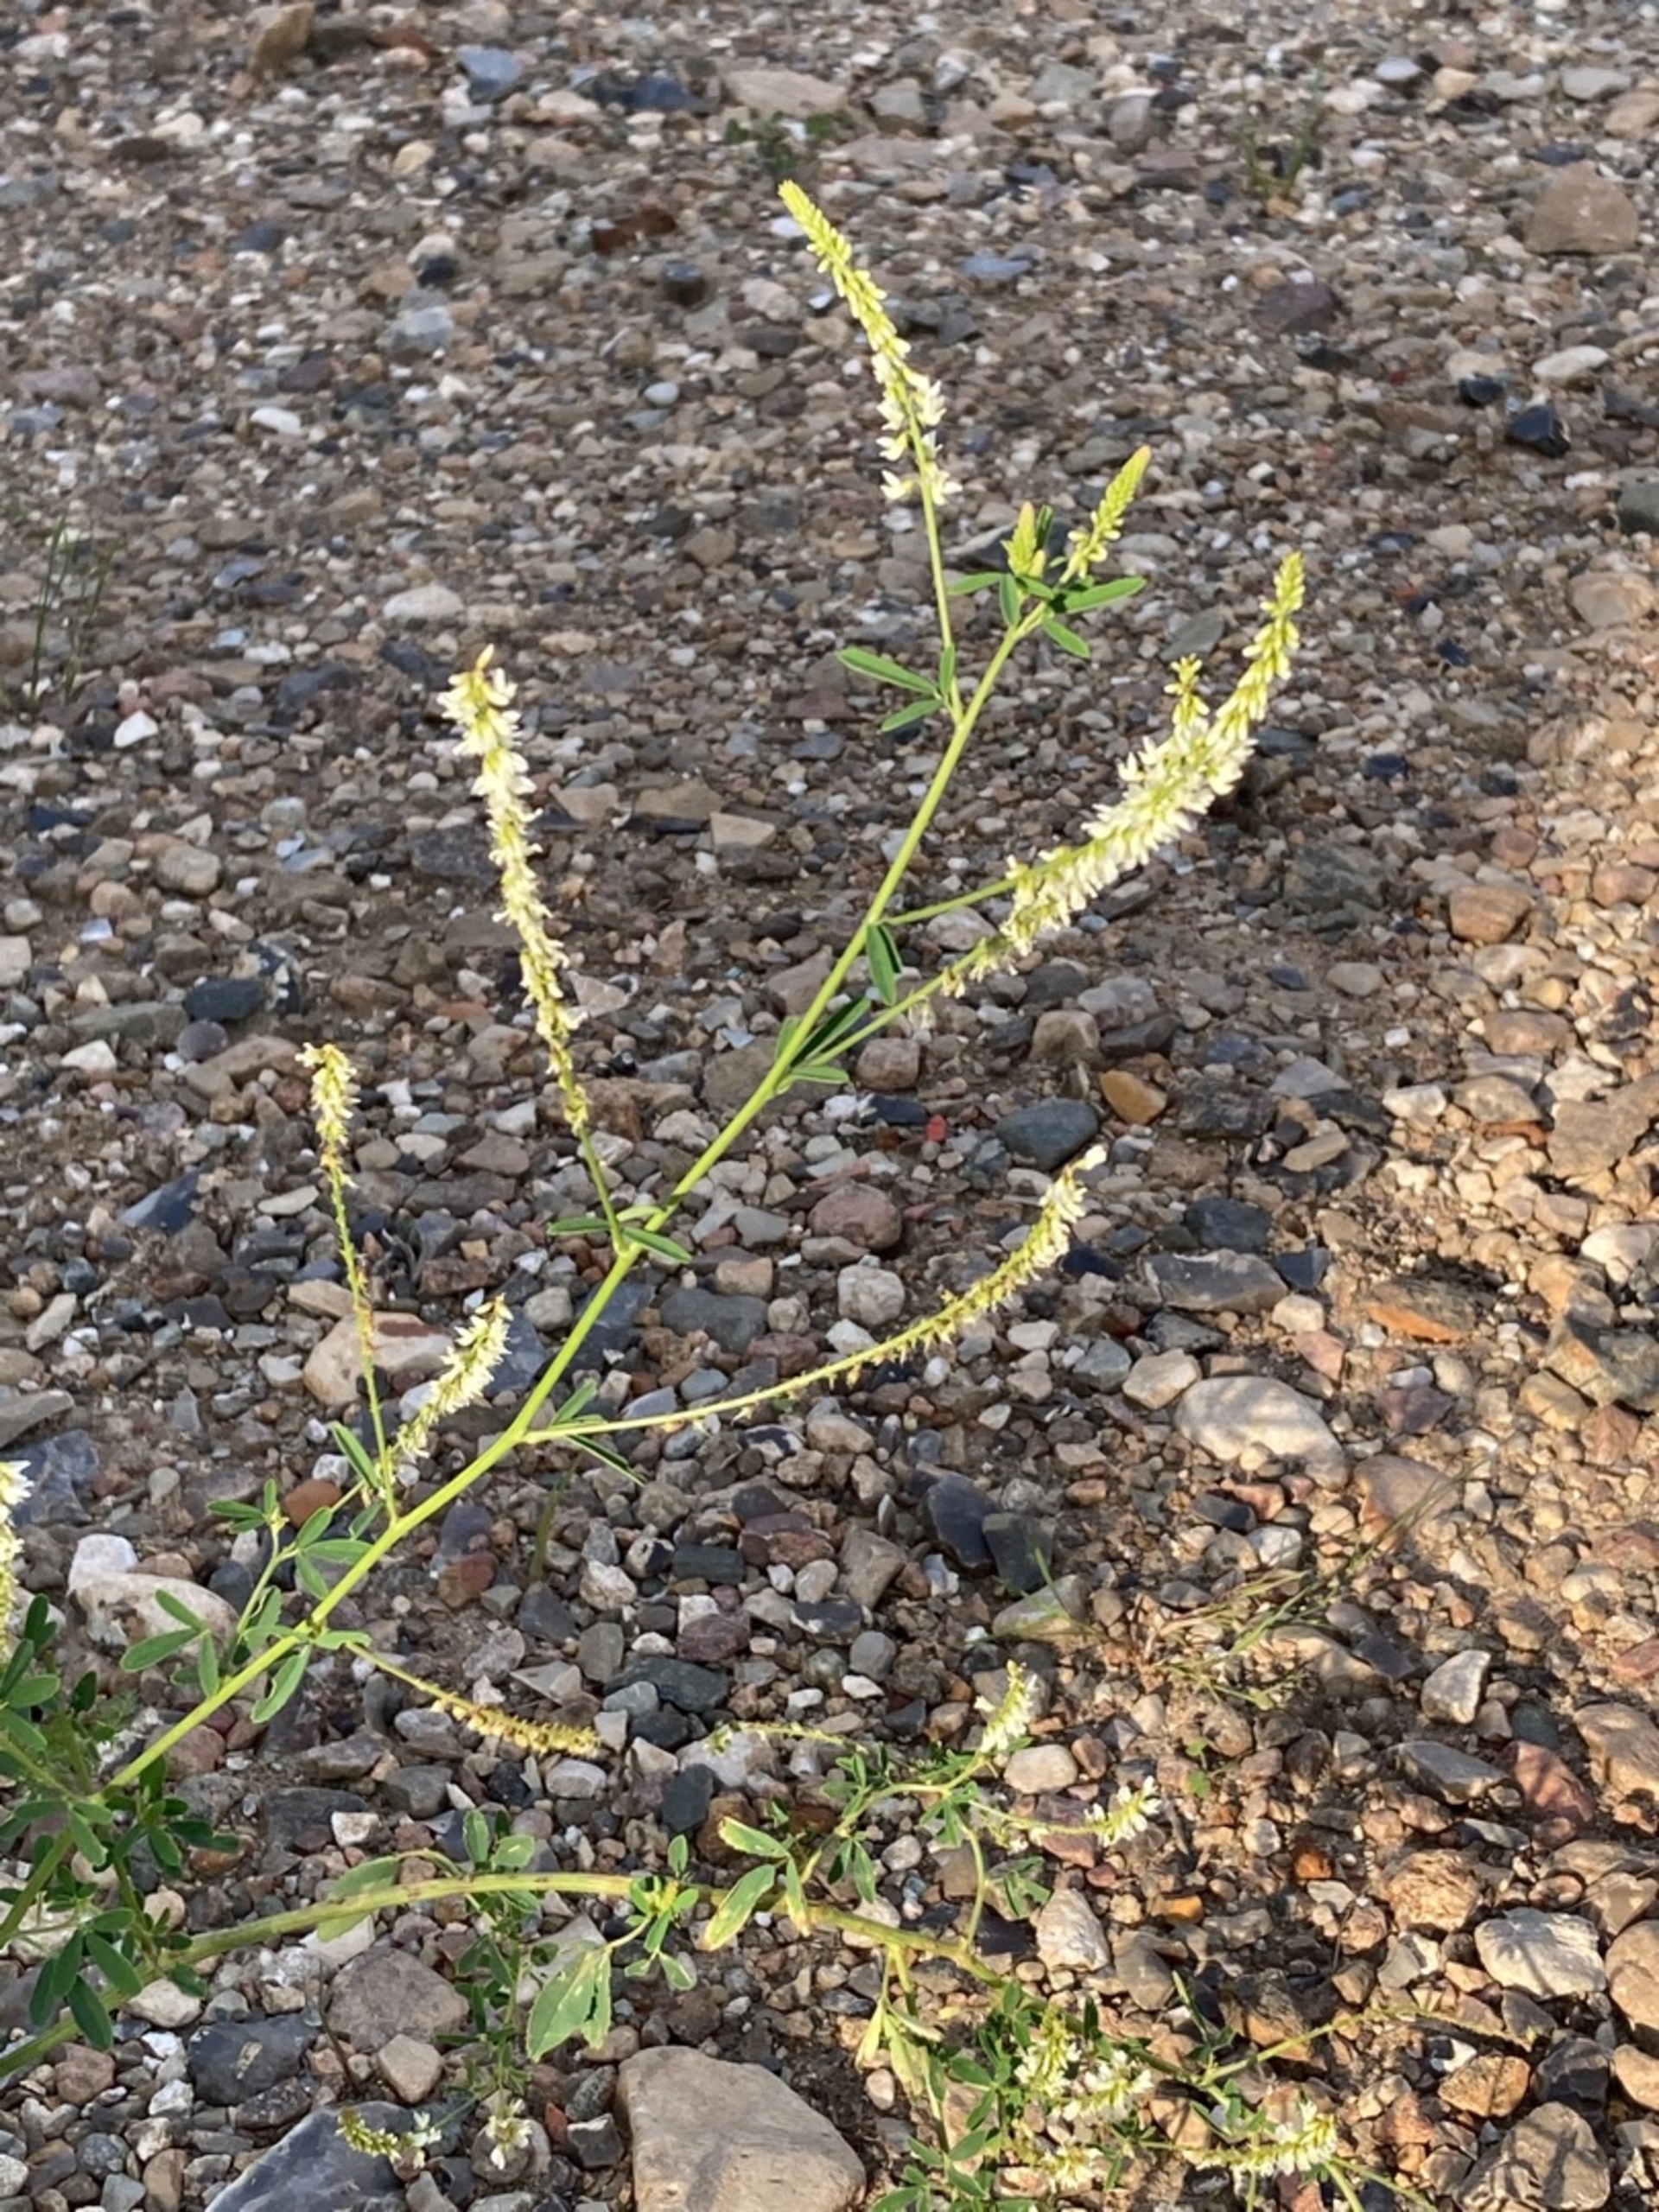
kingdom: Plantae
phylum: Tracheophyta
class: Magnoliopsida
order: Fabales
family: Fabaceae
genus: Melilotus
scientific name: Melilotus albus
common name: Hvid stenkløver
